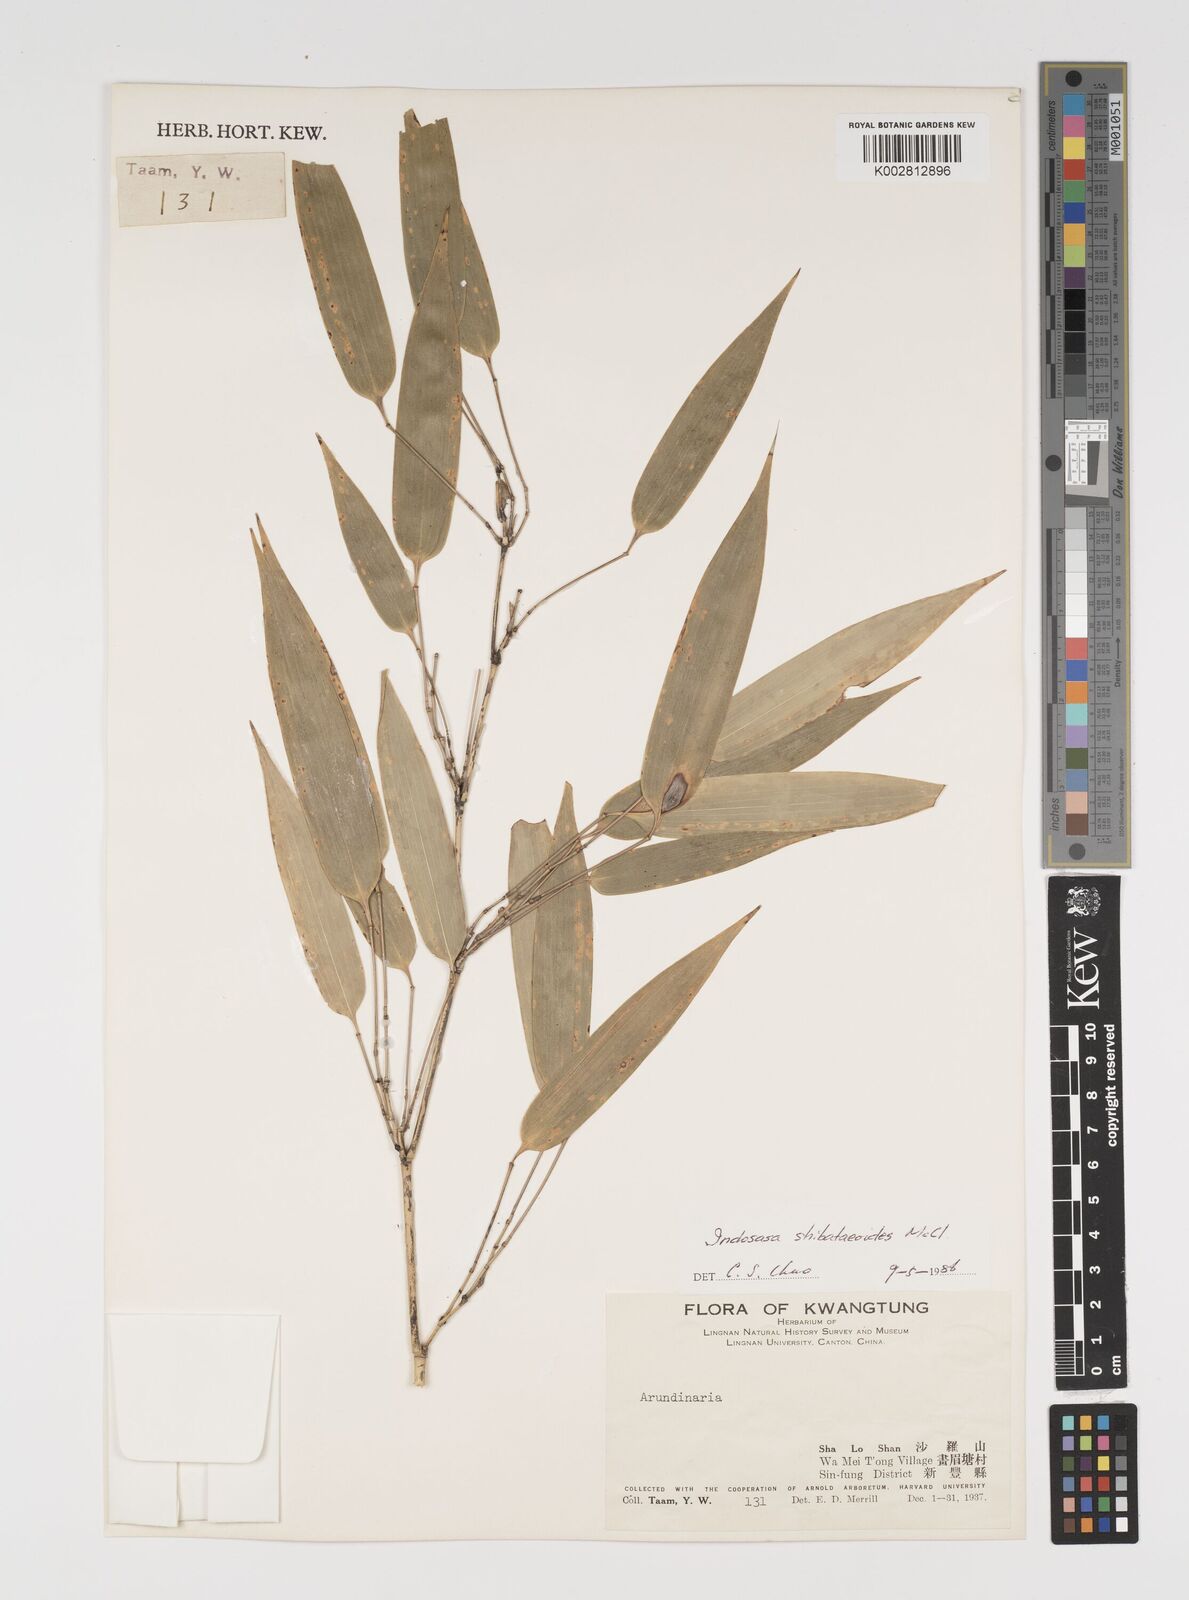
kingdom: Plantae
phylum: Tracheophyta
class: Liliopsida
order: Poales
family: Poaceae
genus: Indosasa
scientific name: Indosasa shibataeaoides
